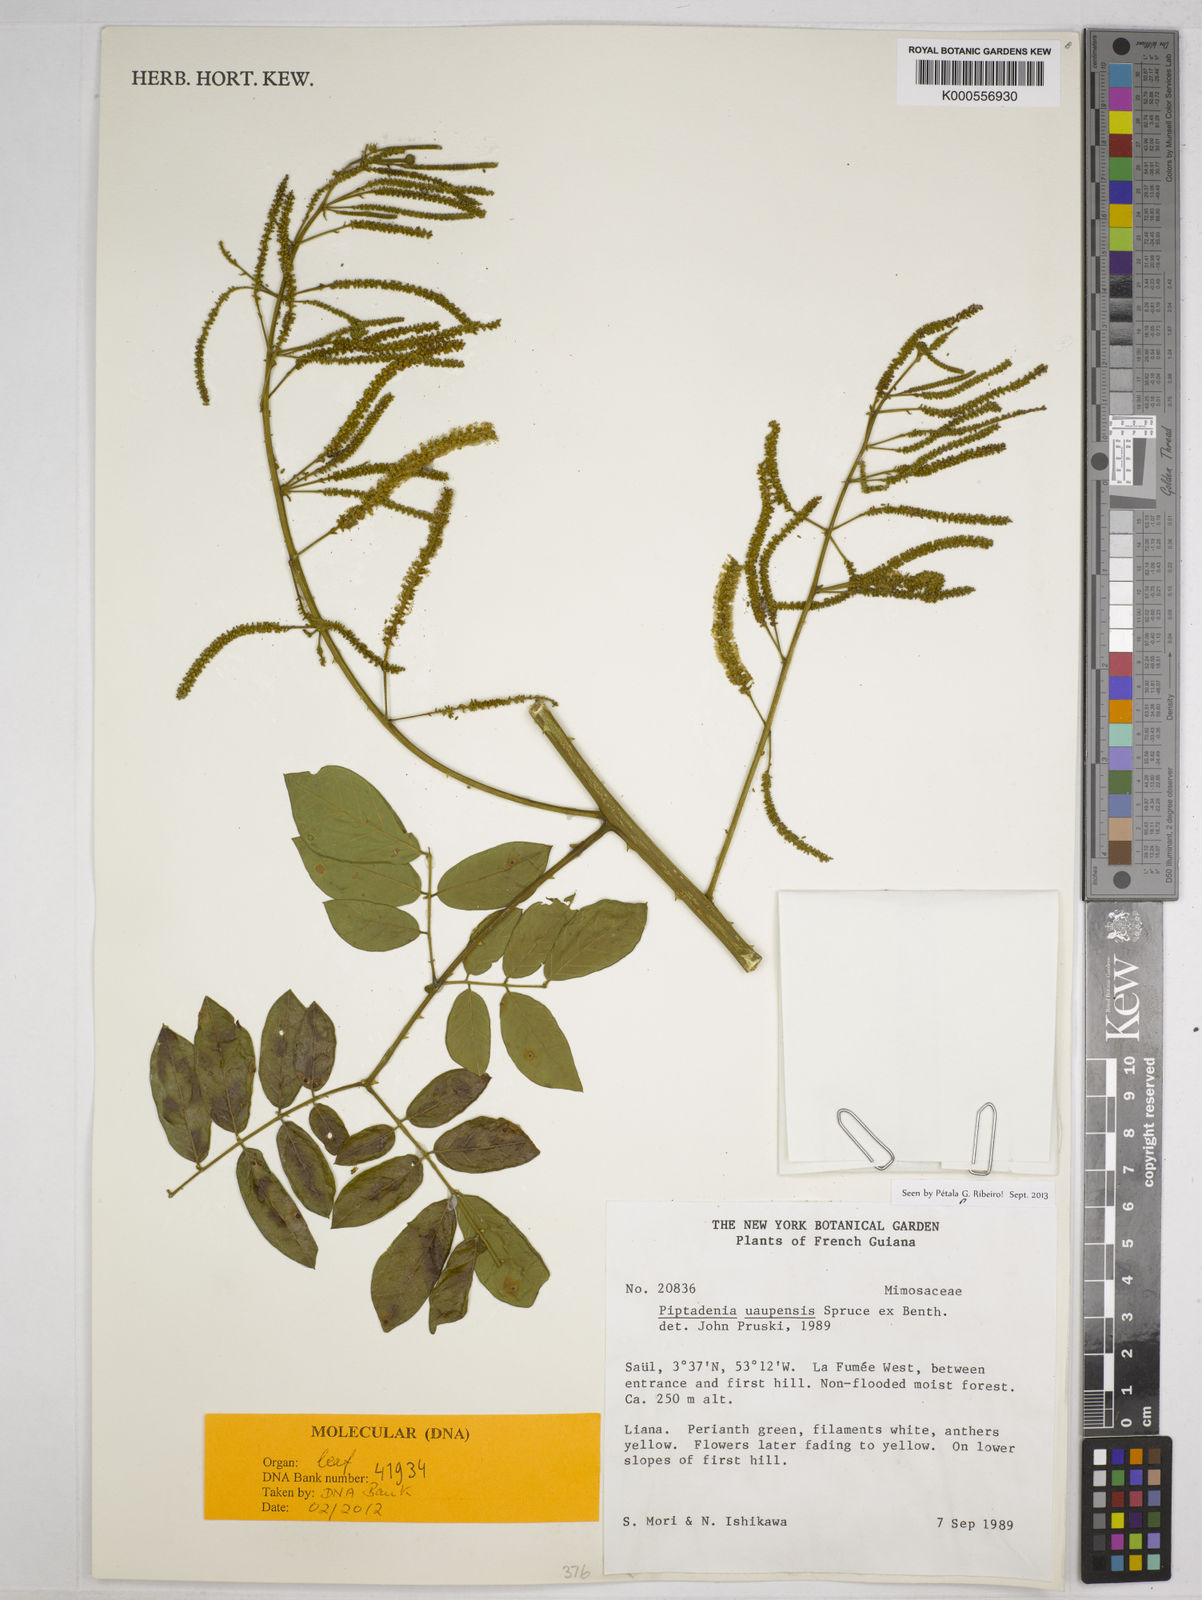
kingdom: Plantae
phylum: Tracheophyta
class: Magnoliopsida
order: Fabales
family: Fabaceae
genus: Piptadenia
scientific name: Piptadenia uaupensis
